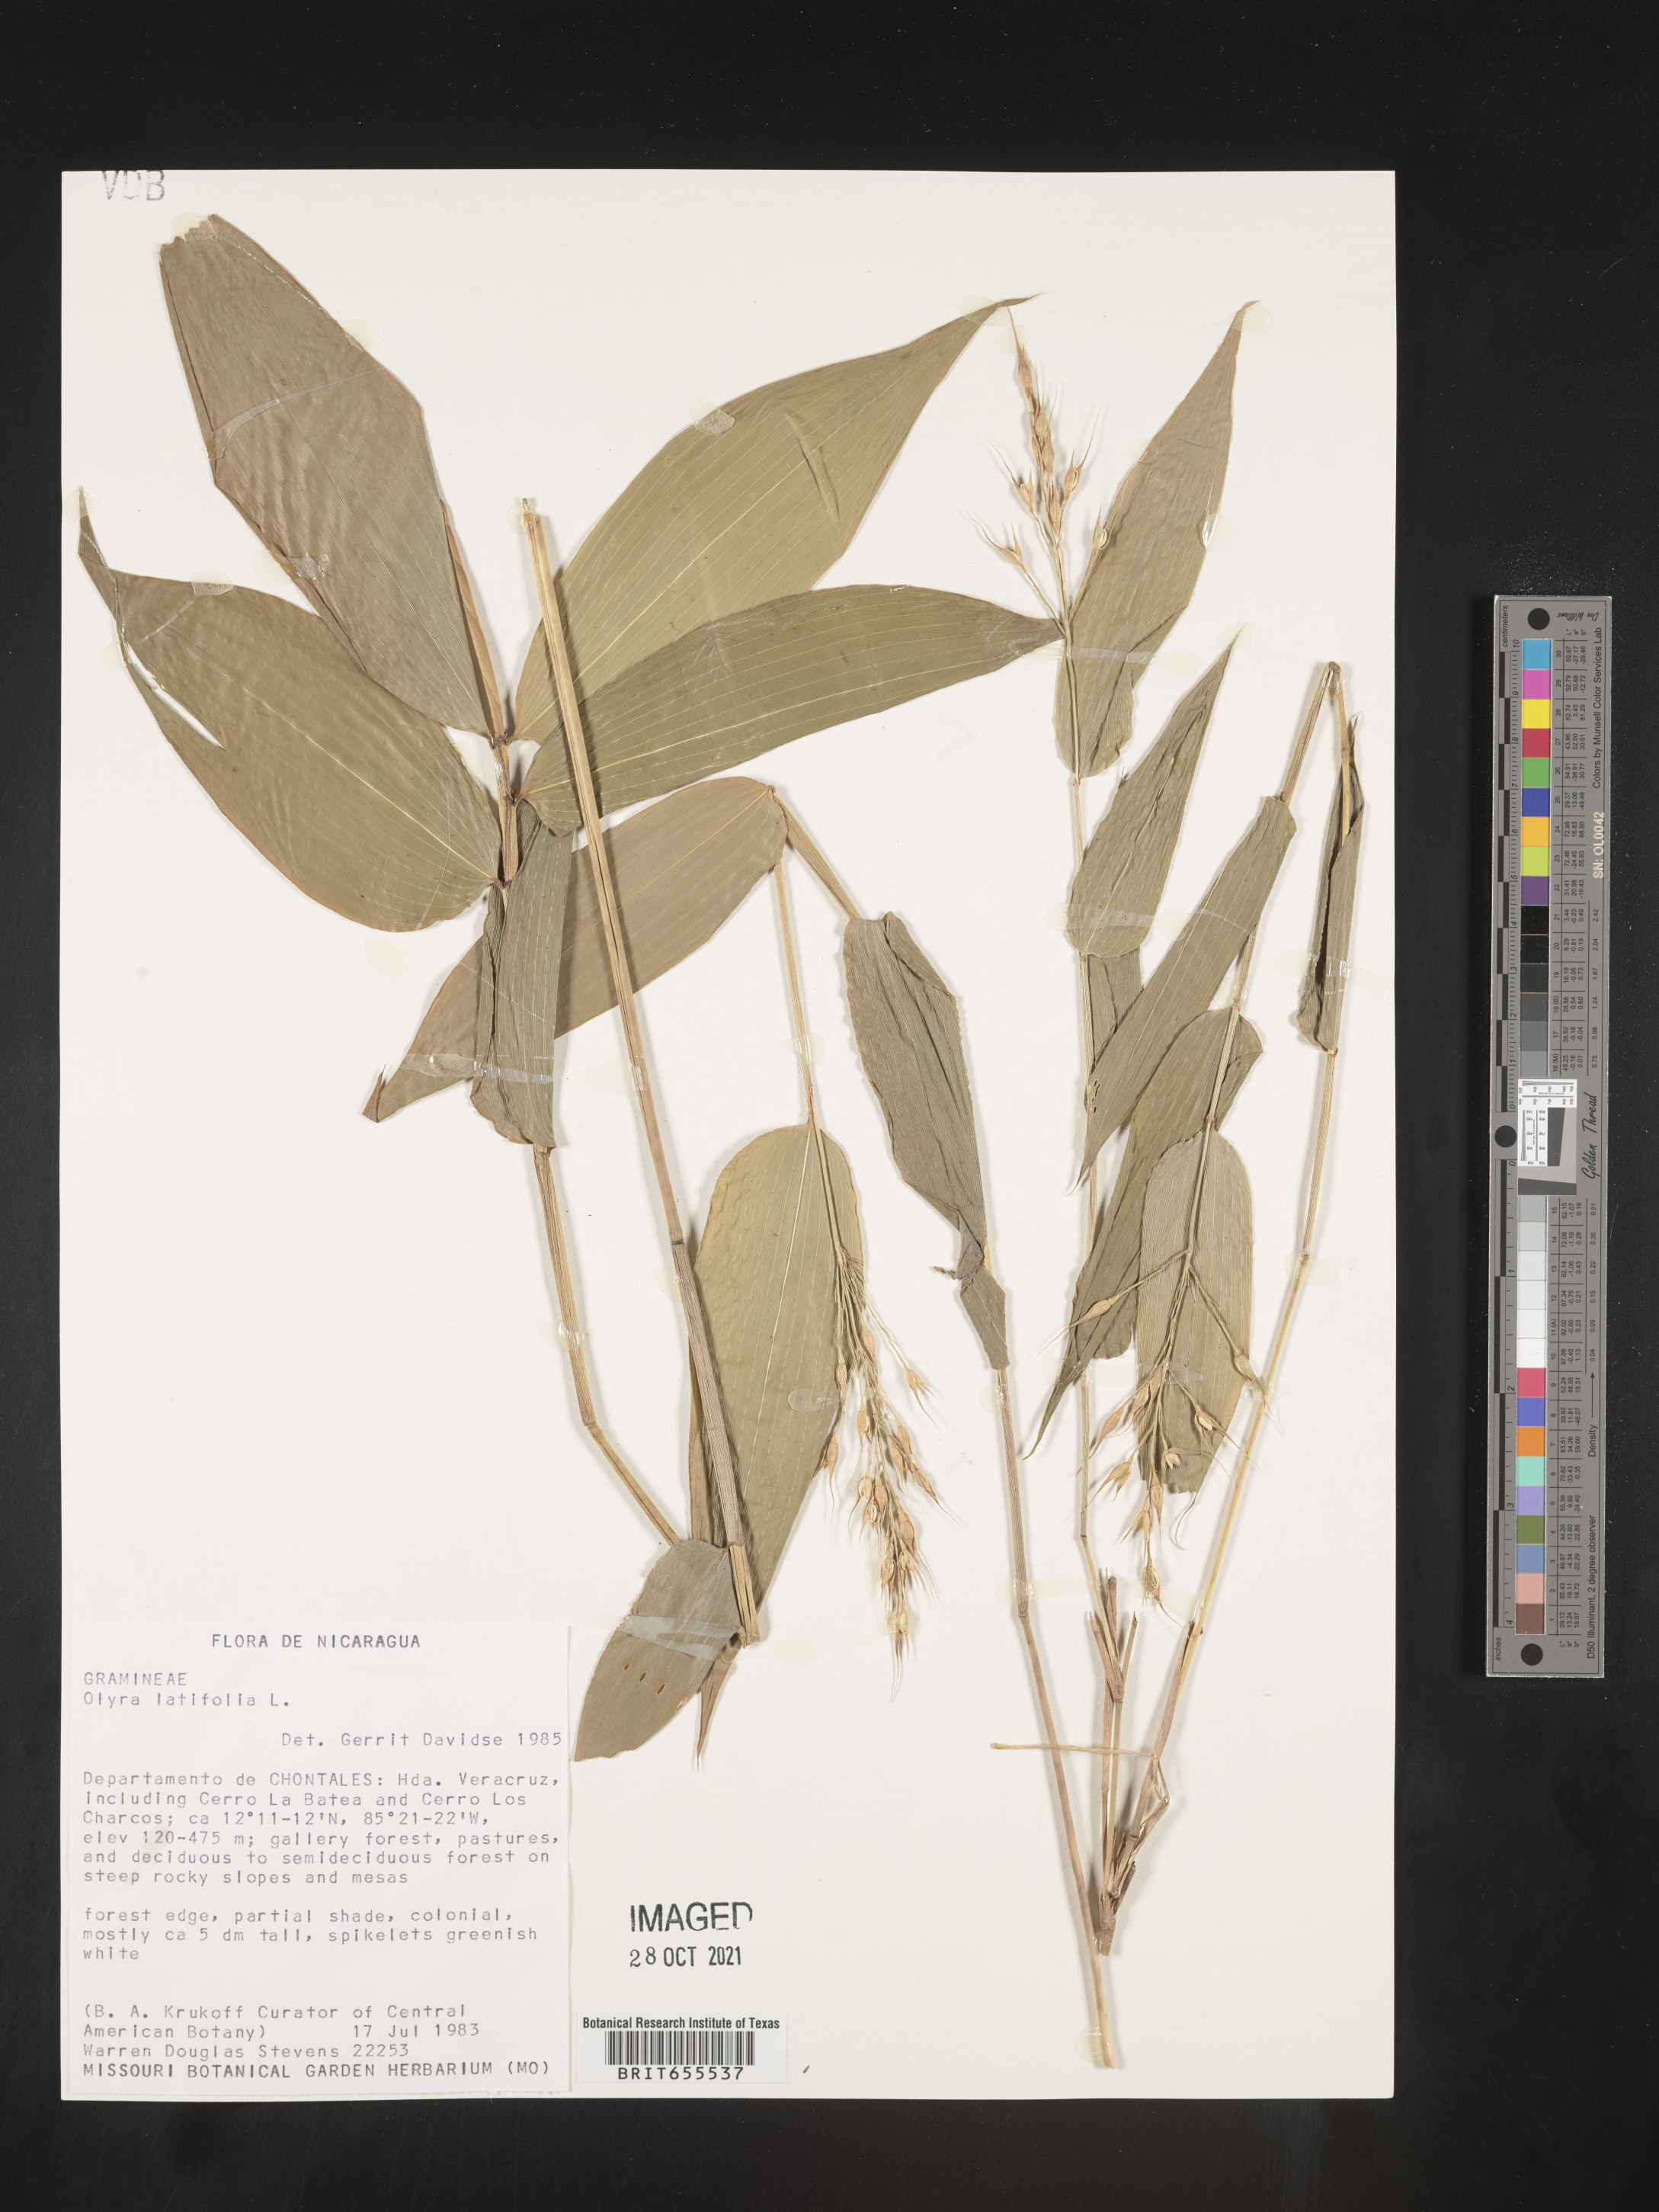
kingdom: Plantae
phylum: Tracheophyta
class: Liliopsida
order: Poales
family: Poaceae
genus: Olyra
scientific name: Olyra
